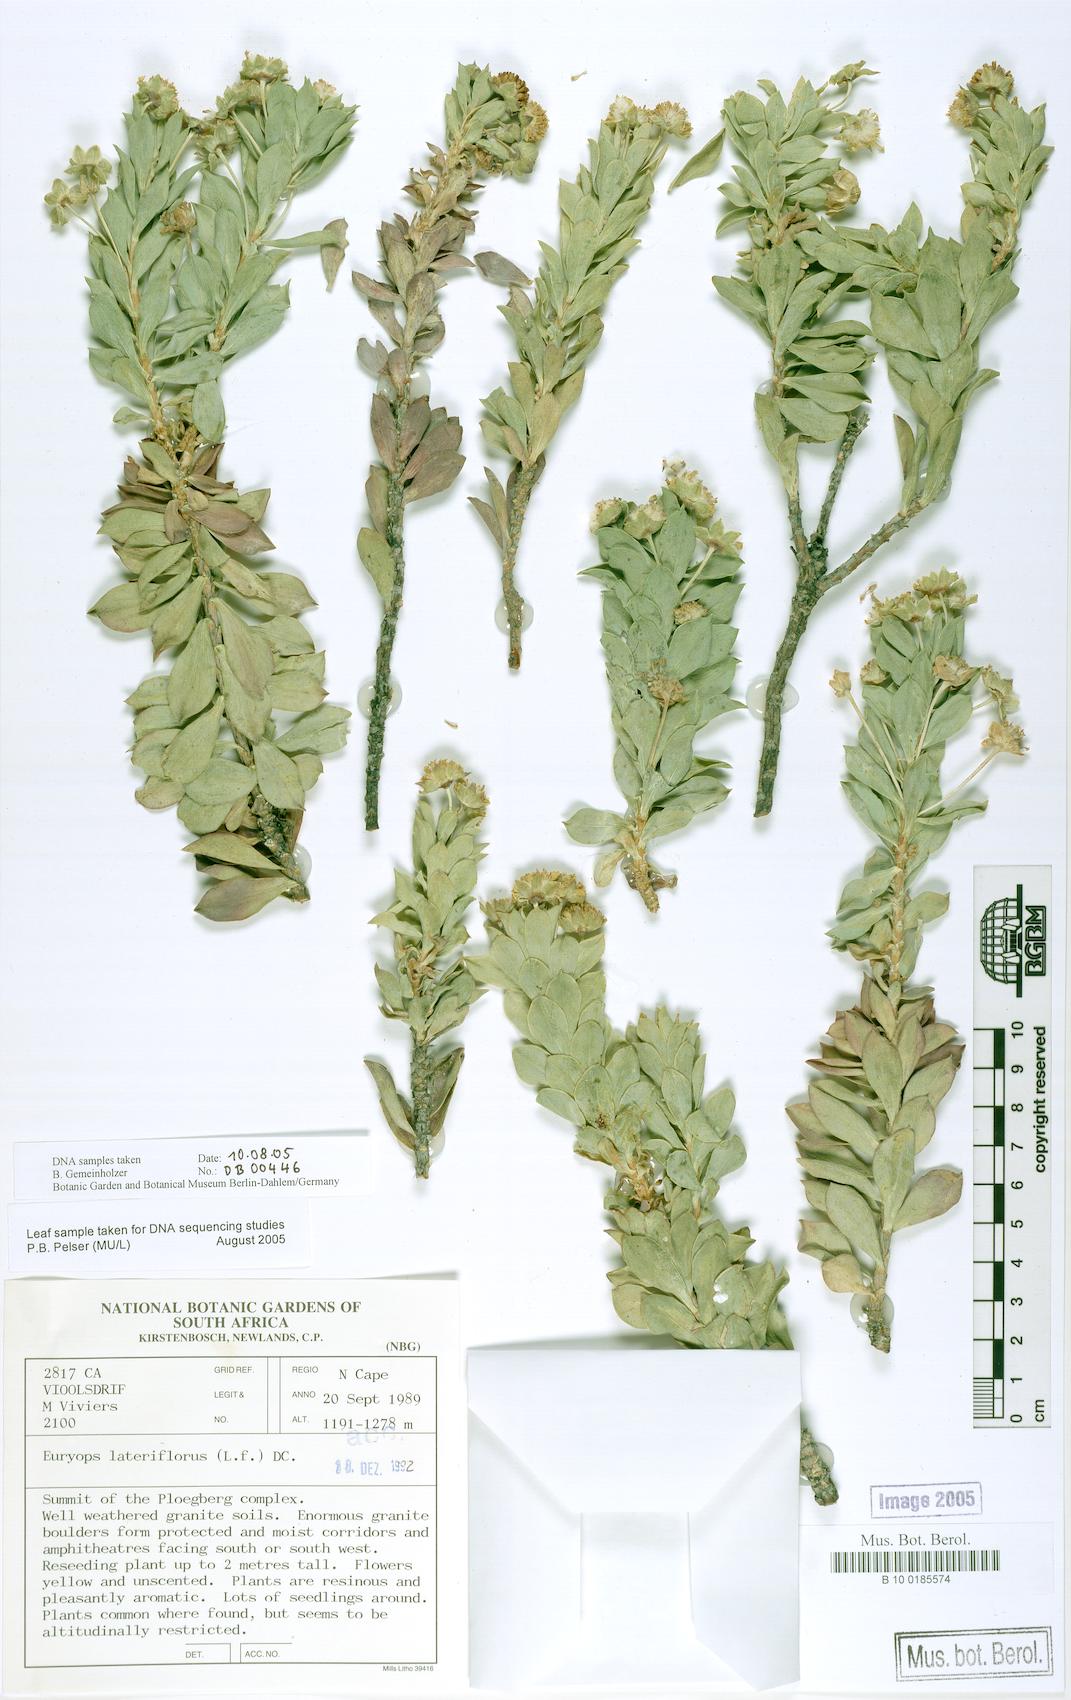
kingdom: Plantae
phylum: Tracheophyta
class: Magnoliopsida
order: Asterales
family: Asteraceae
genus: Euryops
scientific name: Euryops lateriflorus
